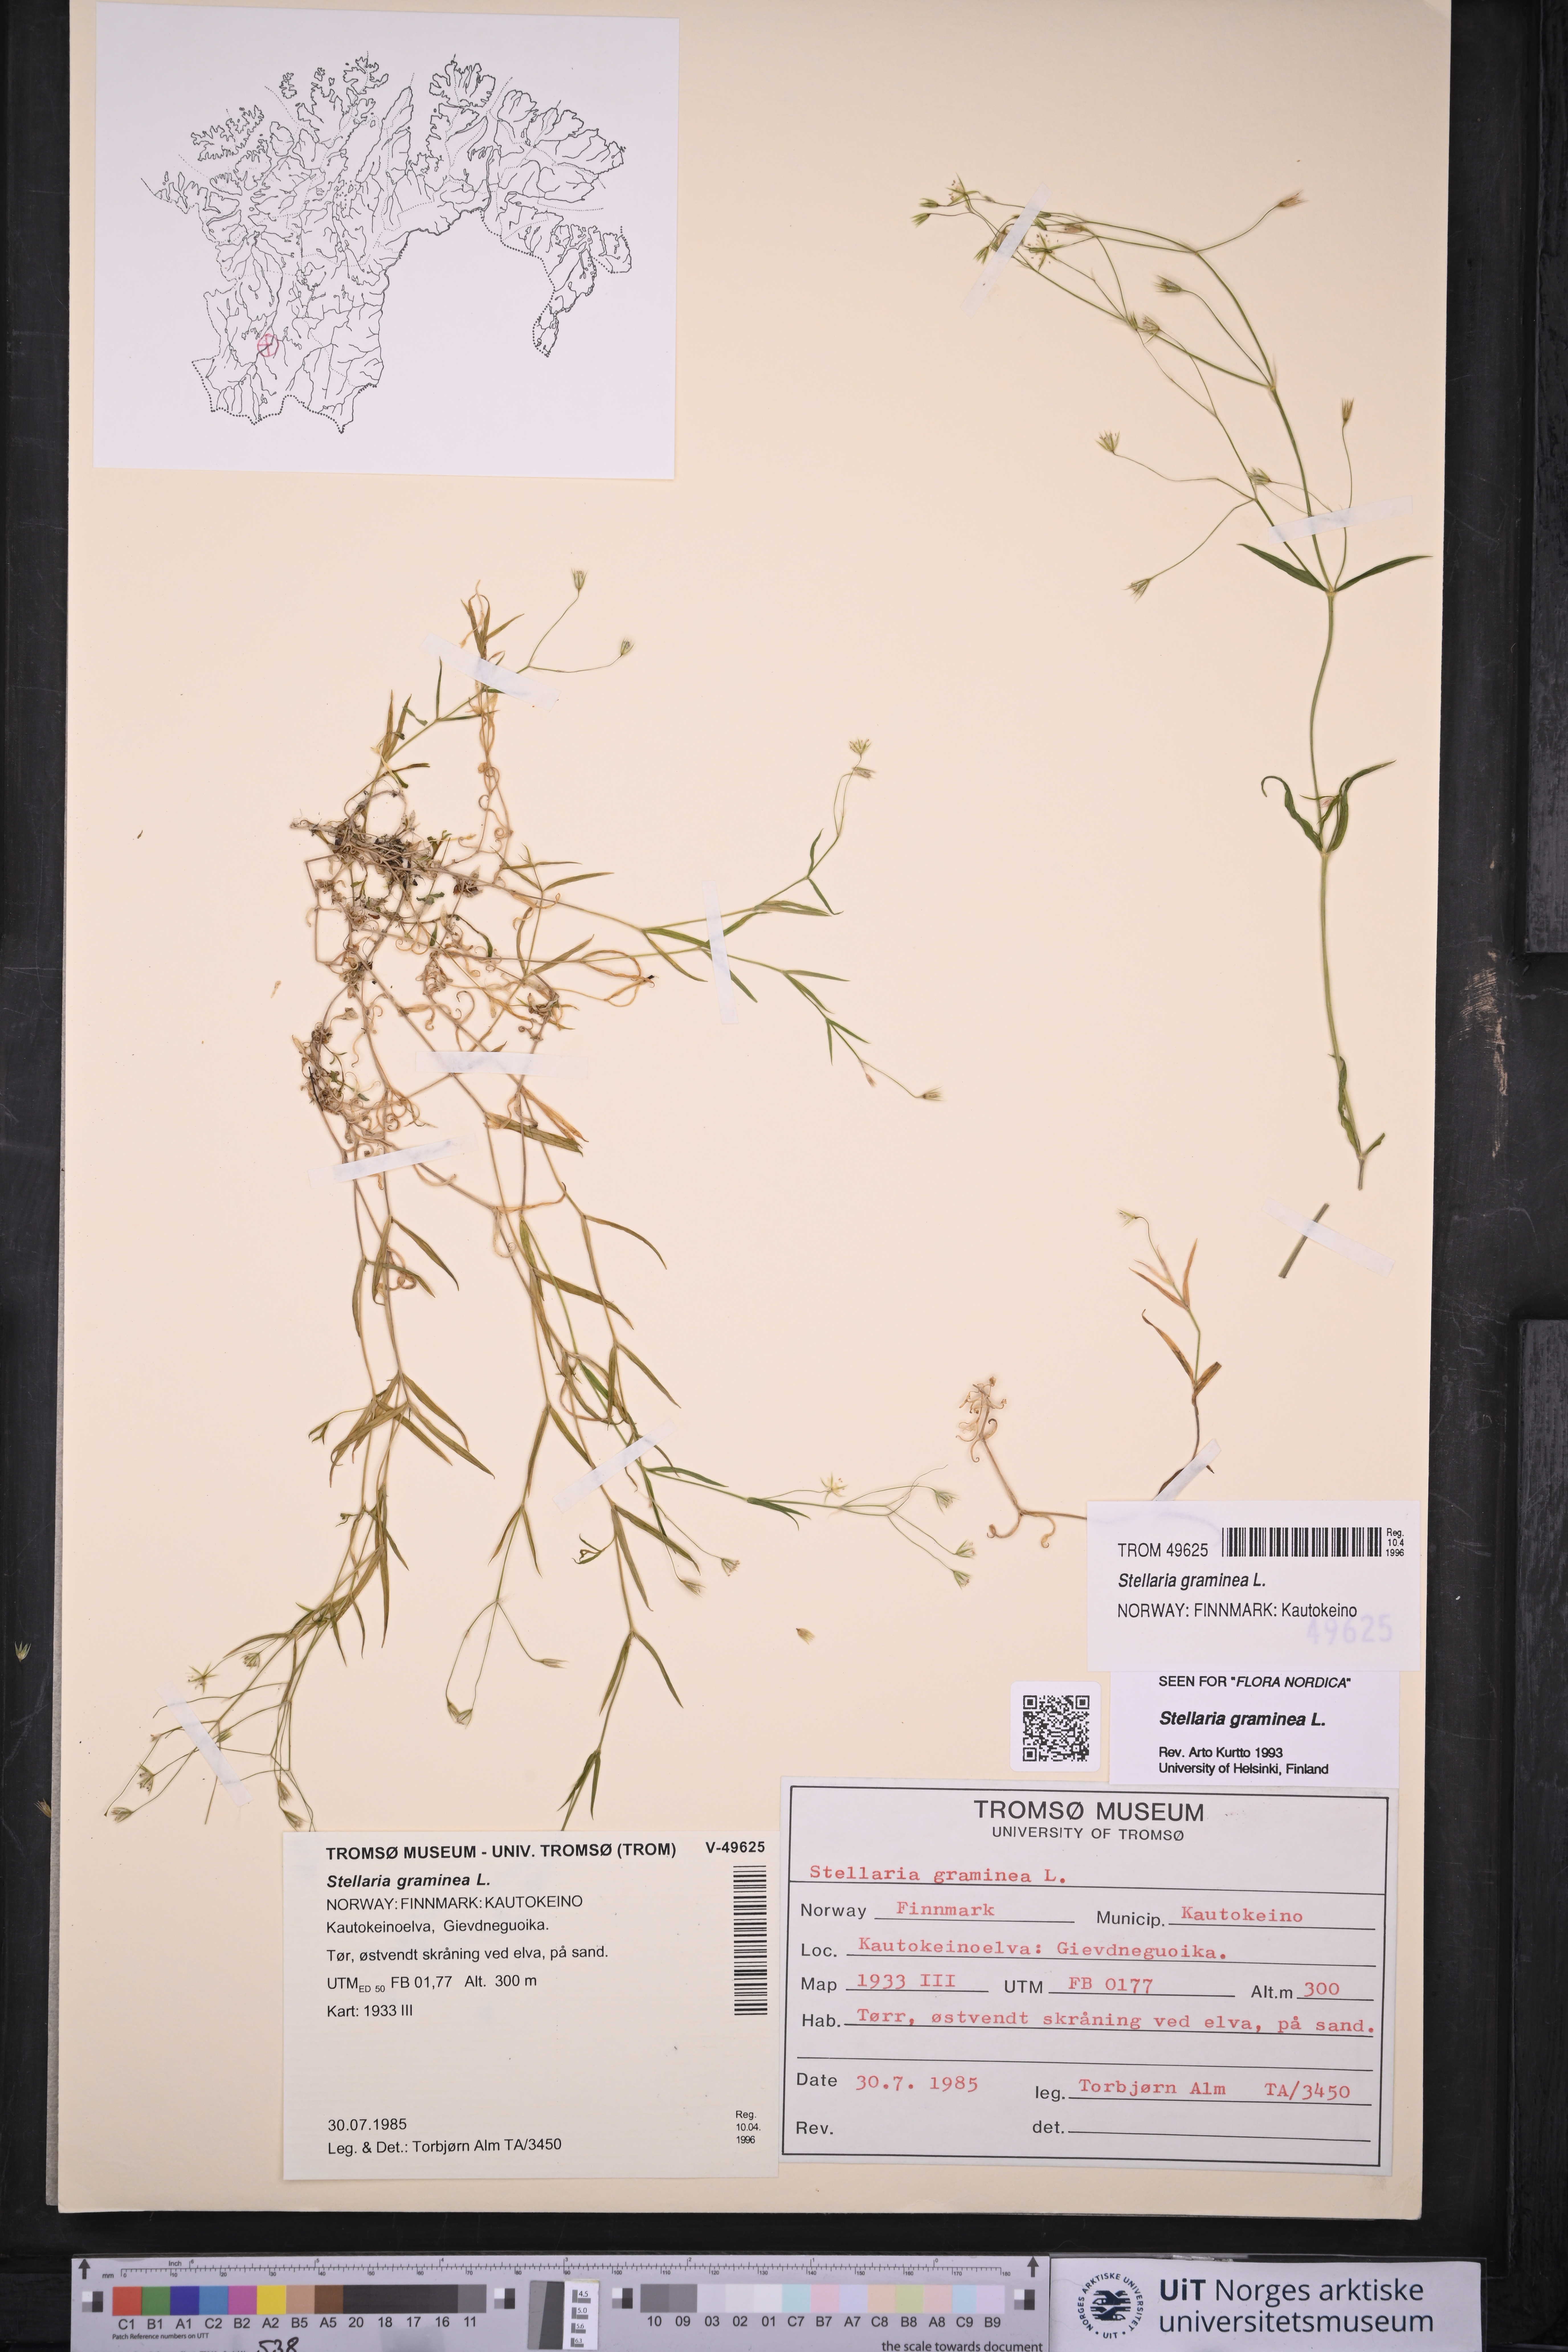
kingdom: Plantae
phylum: Tracheophyta
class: Magnoliopsida
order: Caryophyllales
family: Caryophyllaceae
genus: Stellaria
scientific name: Stellaria graminea
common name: Grass-like starwort
